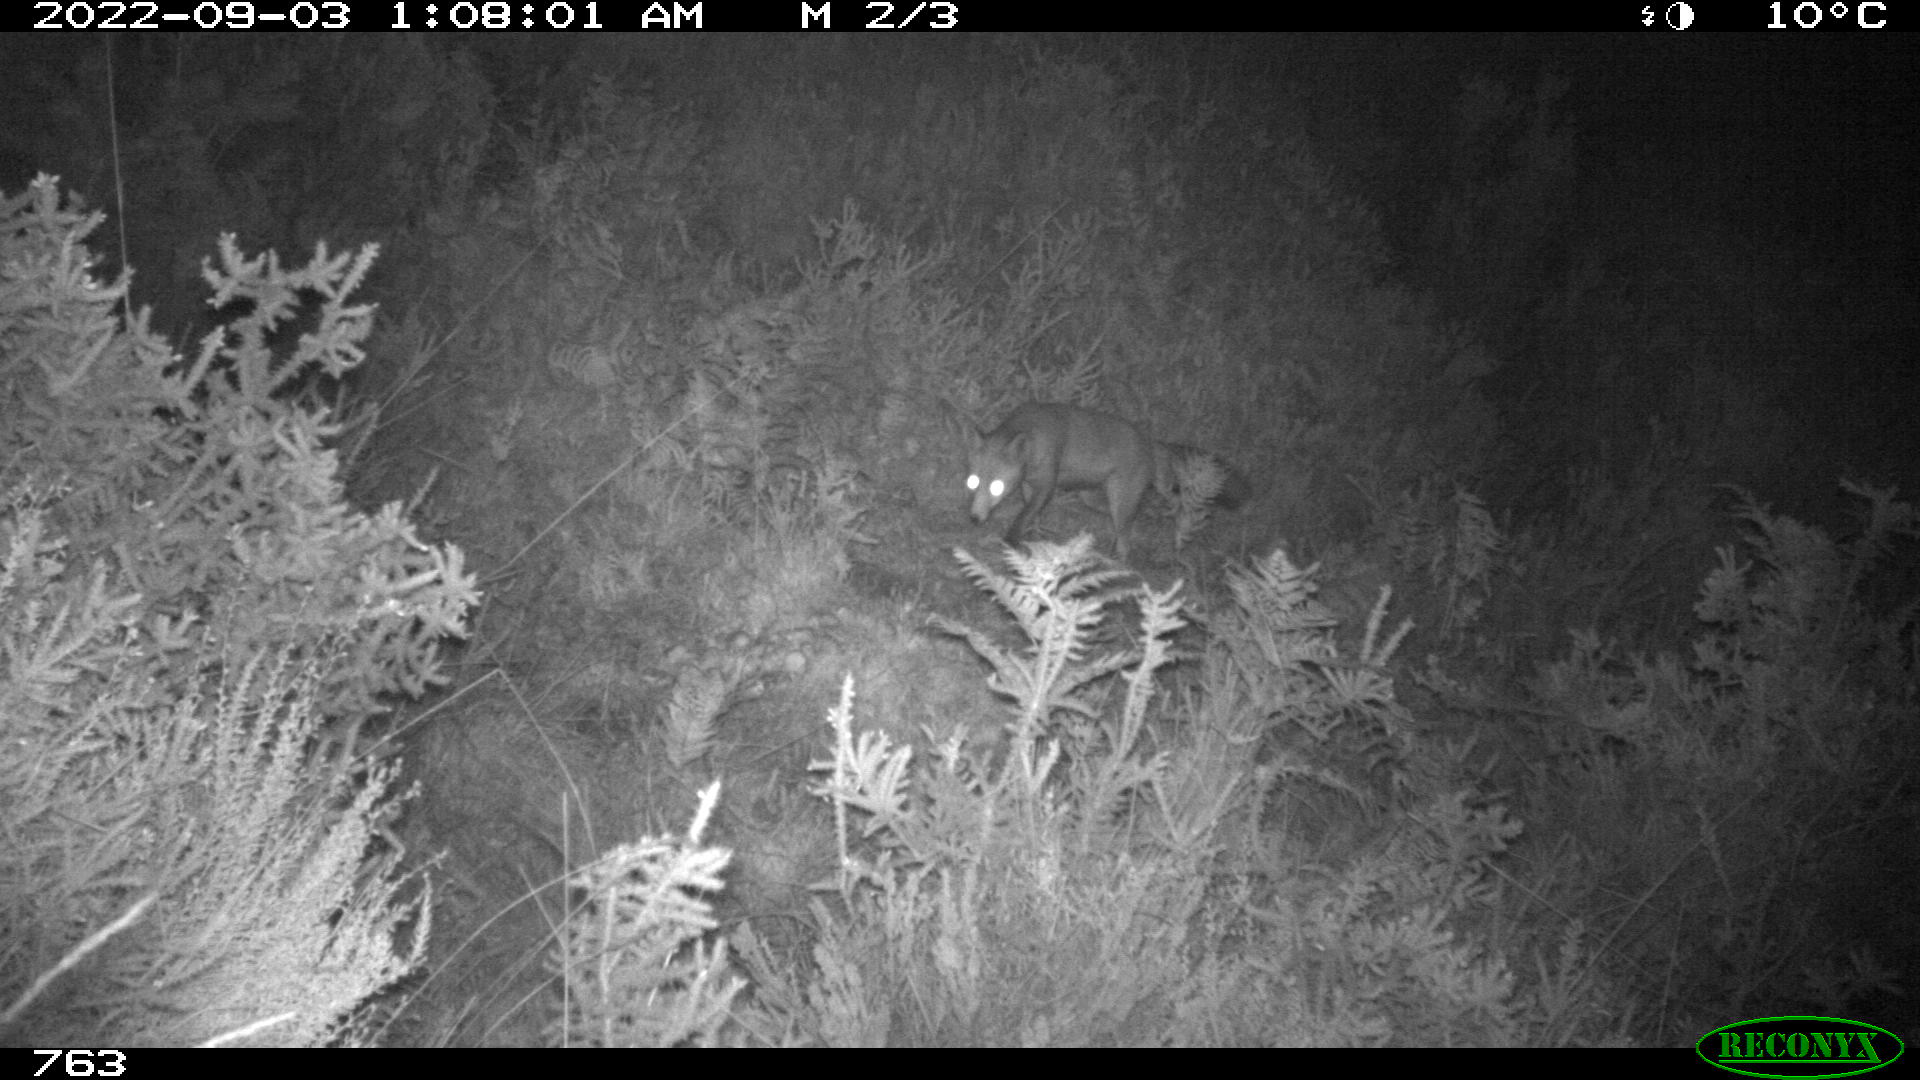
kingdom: Animalia
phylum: Chordata
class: Mammalia
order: Carnivora
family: Canidae
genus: Vulpes
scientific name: Vulpes vulpes
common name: Red fox
